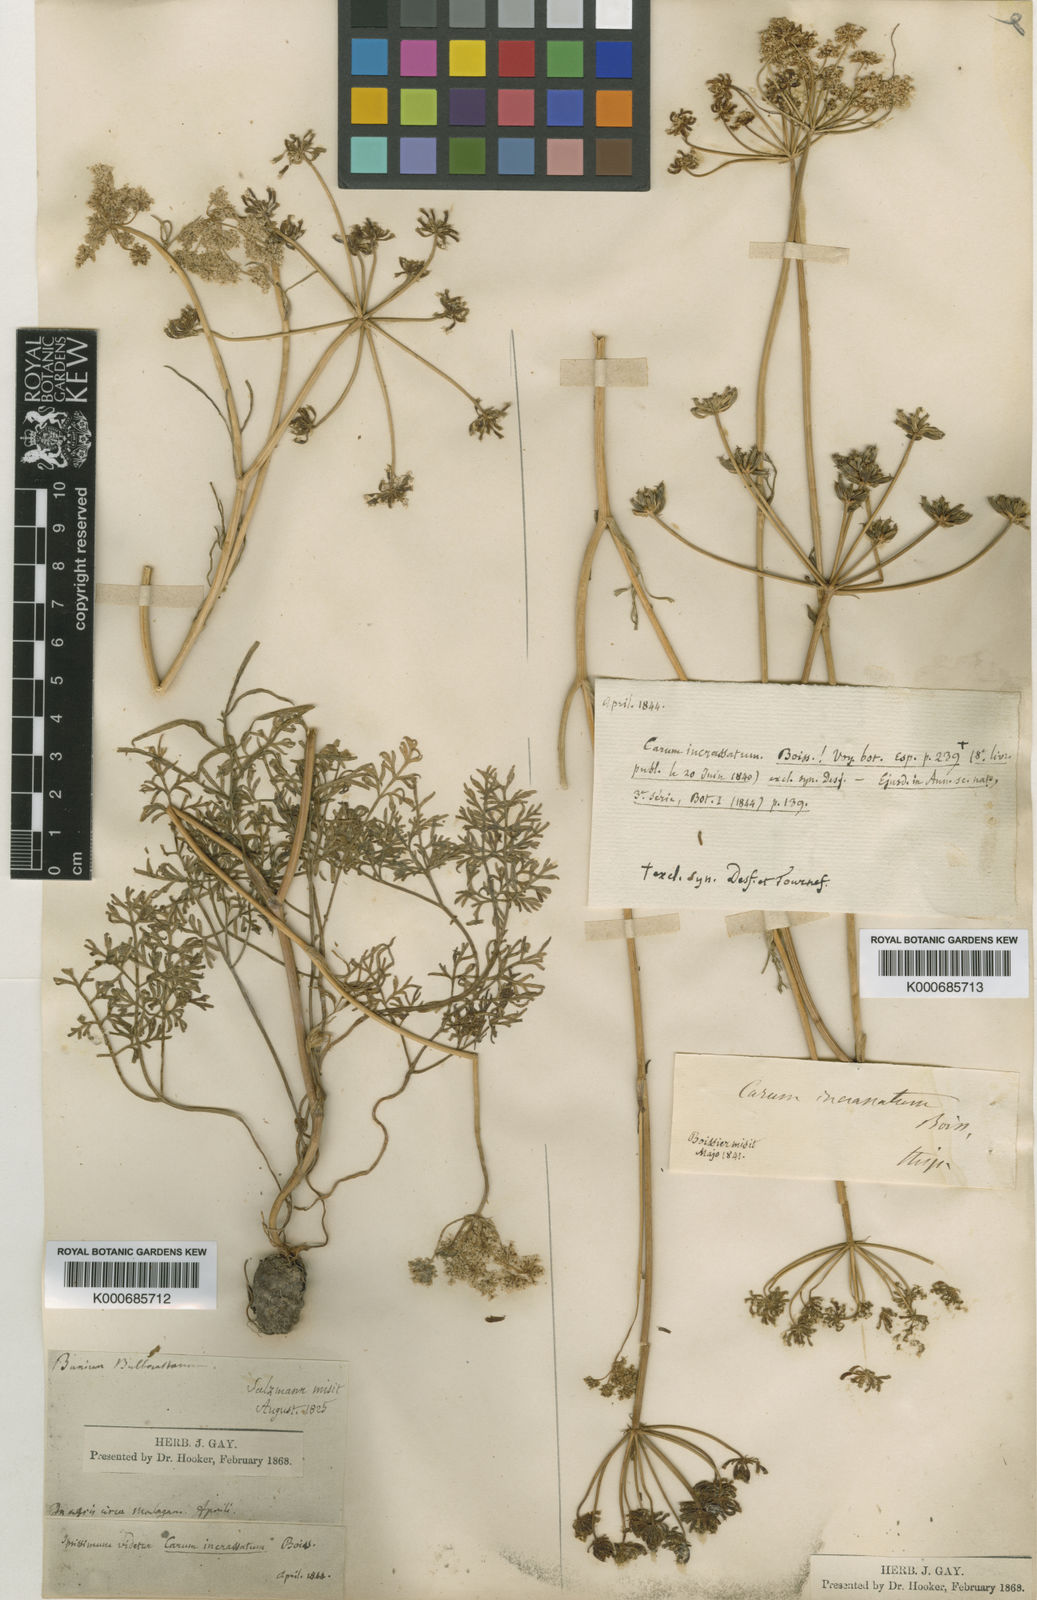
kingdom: Plantae
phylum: Tracheophyta
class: Magnoliopsida
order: Apiales
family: Apiaceae
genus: Bunium
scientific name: Bunium pachypodum
